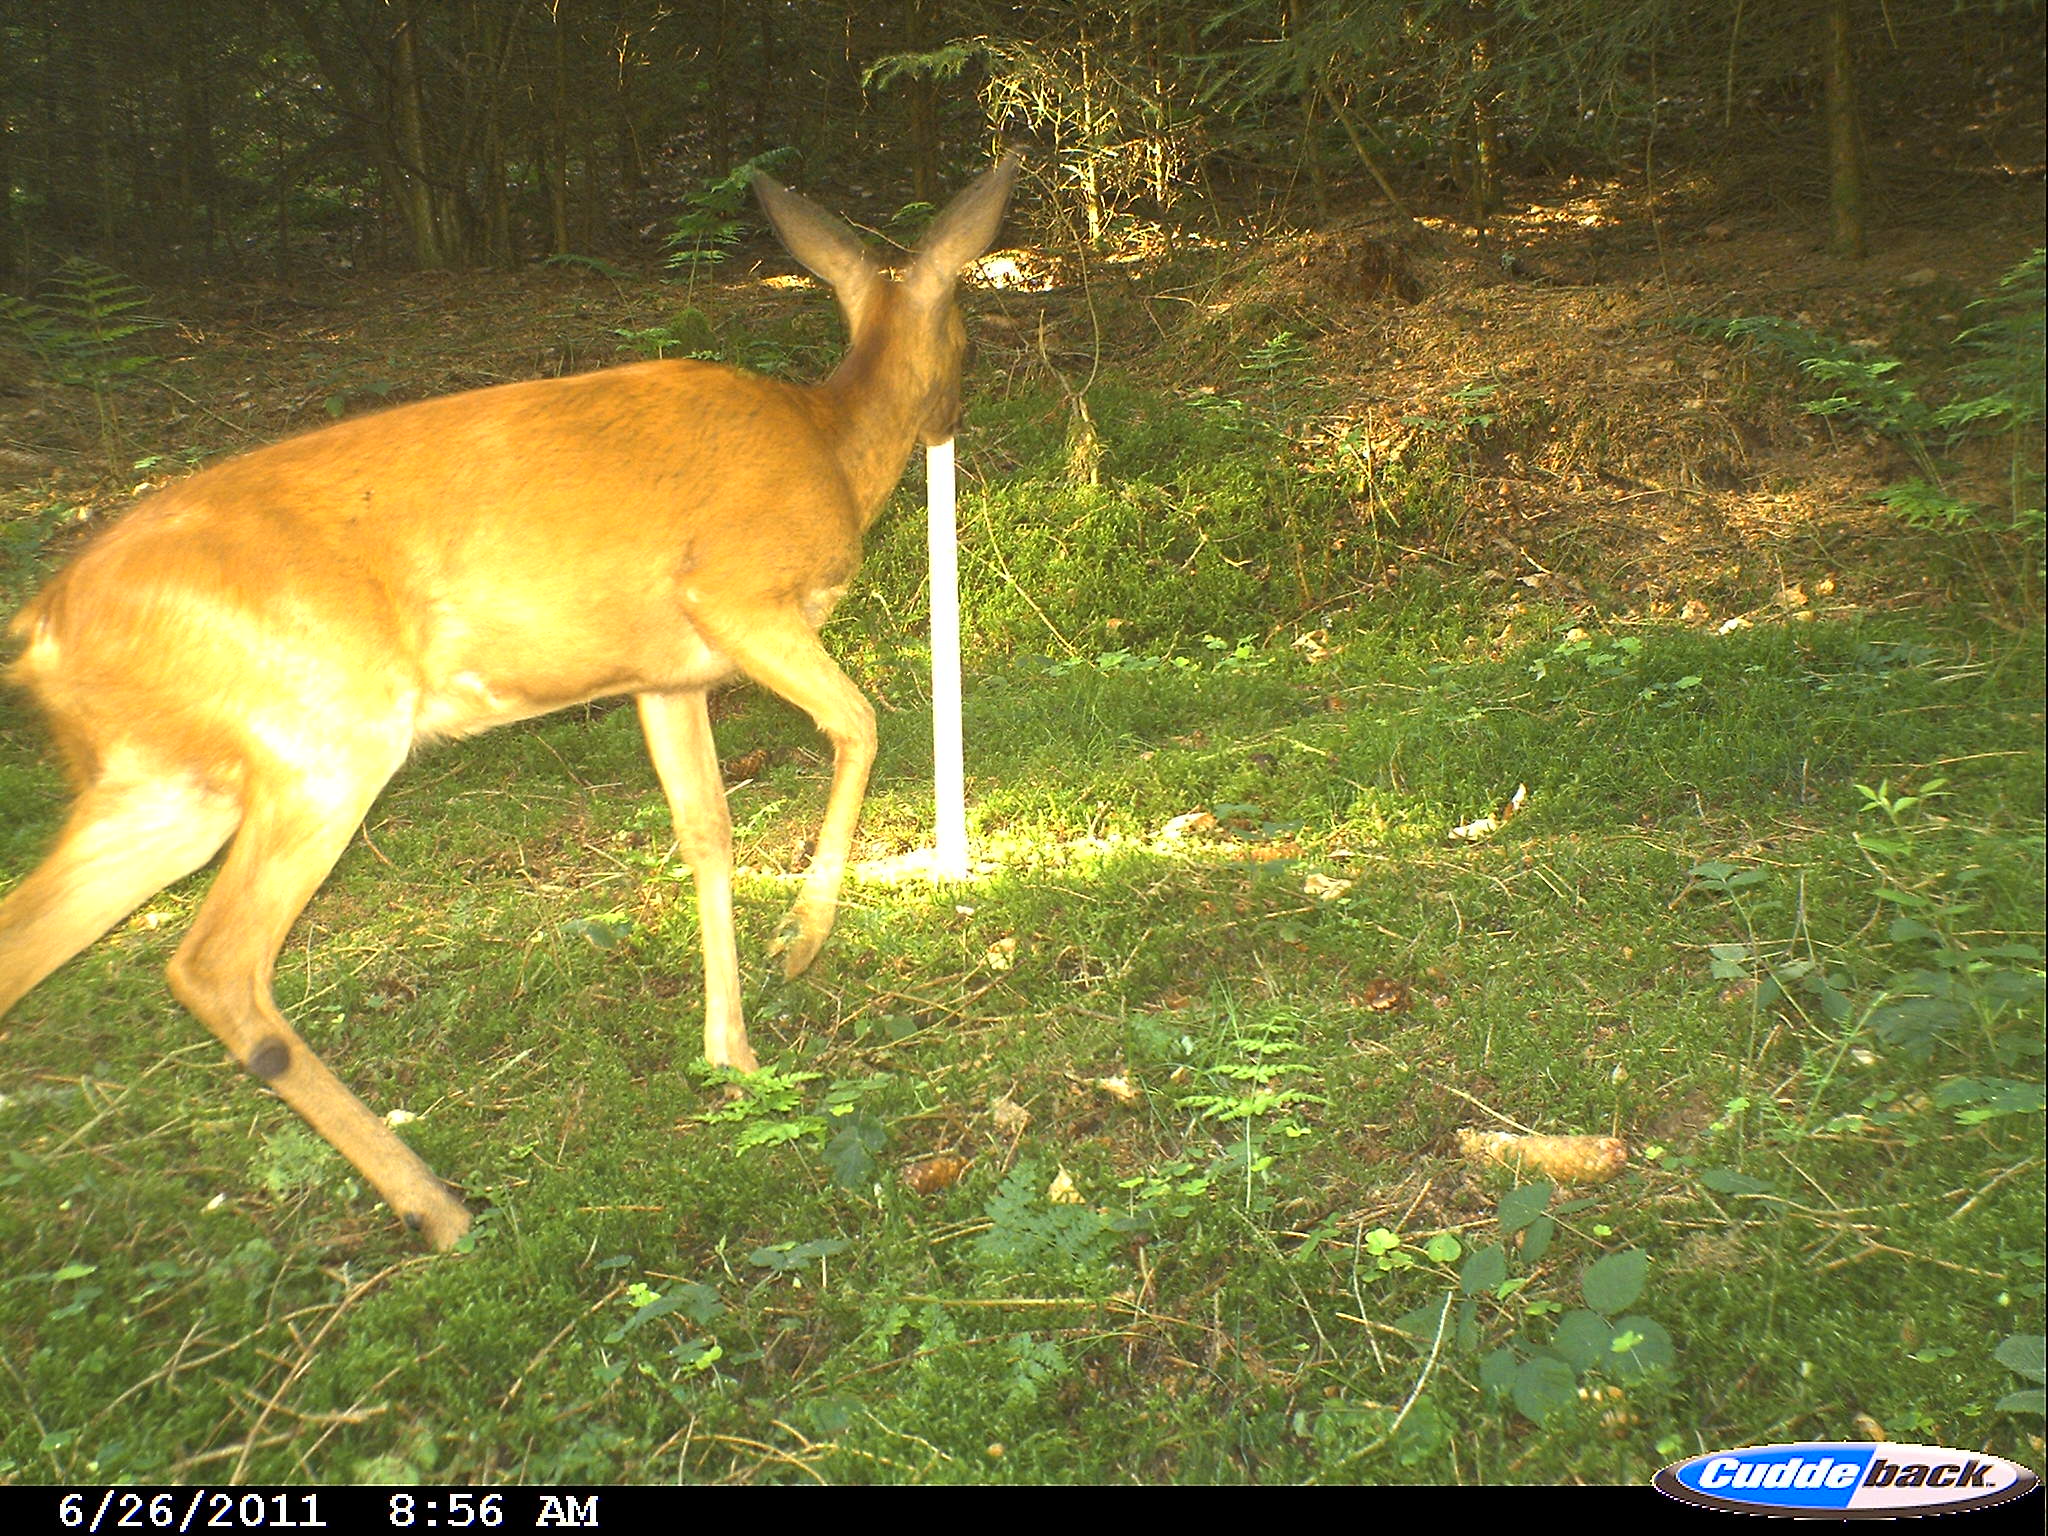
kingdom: Animalia
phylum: Chordata
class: Mammalia
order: Artiodactyla
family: Cervidae
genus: Capreolus
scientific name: Capreolus capreolus
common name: Western roe deer
